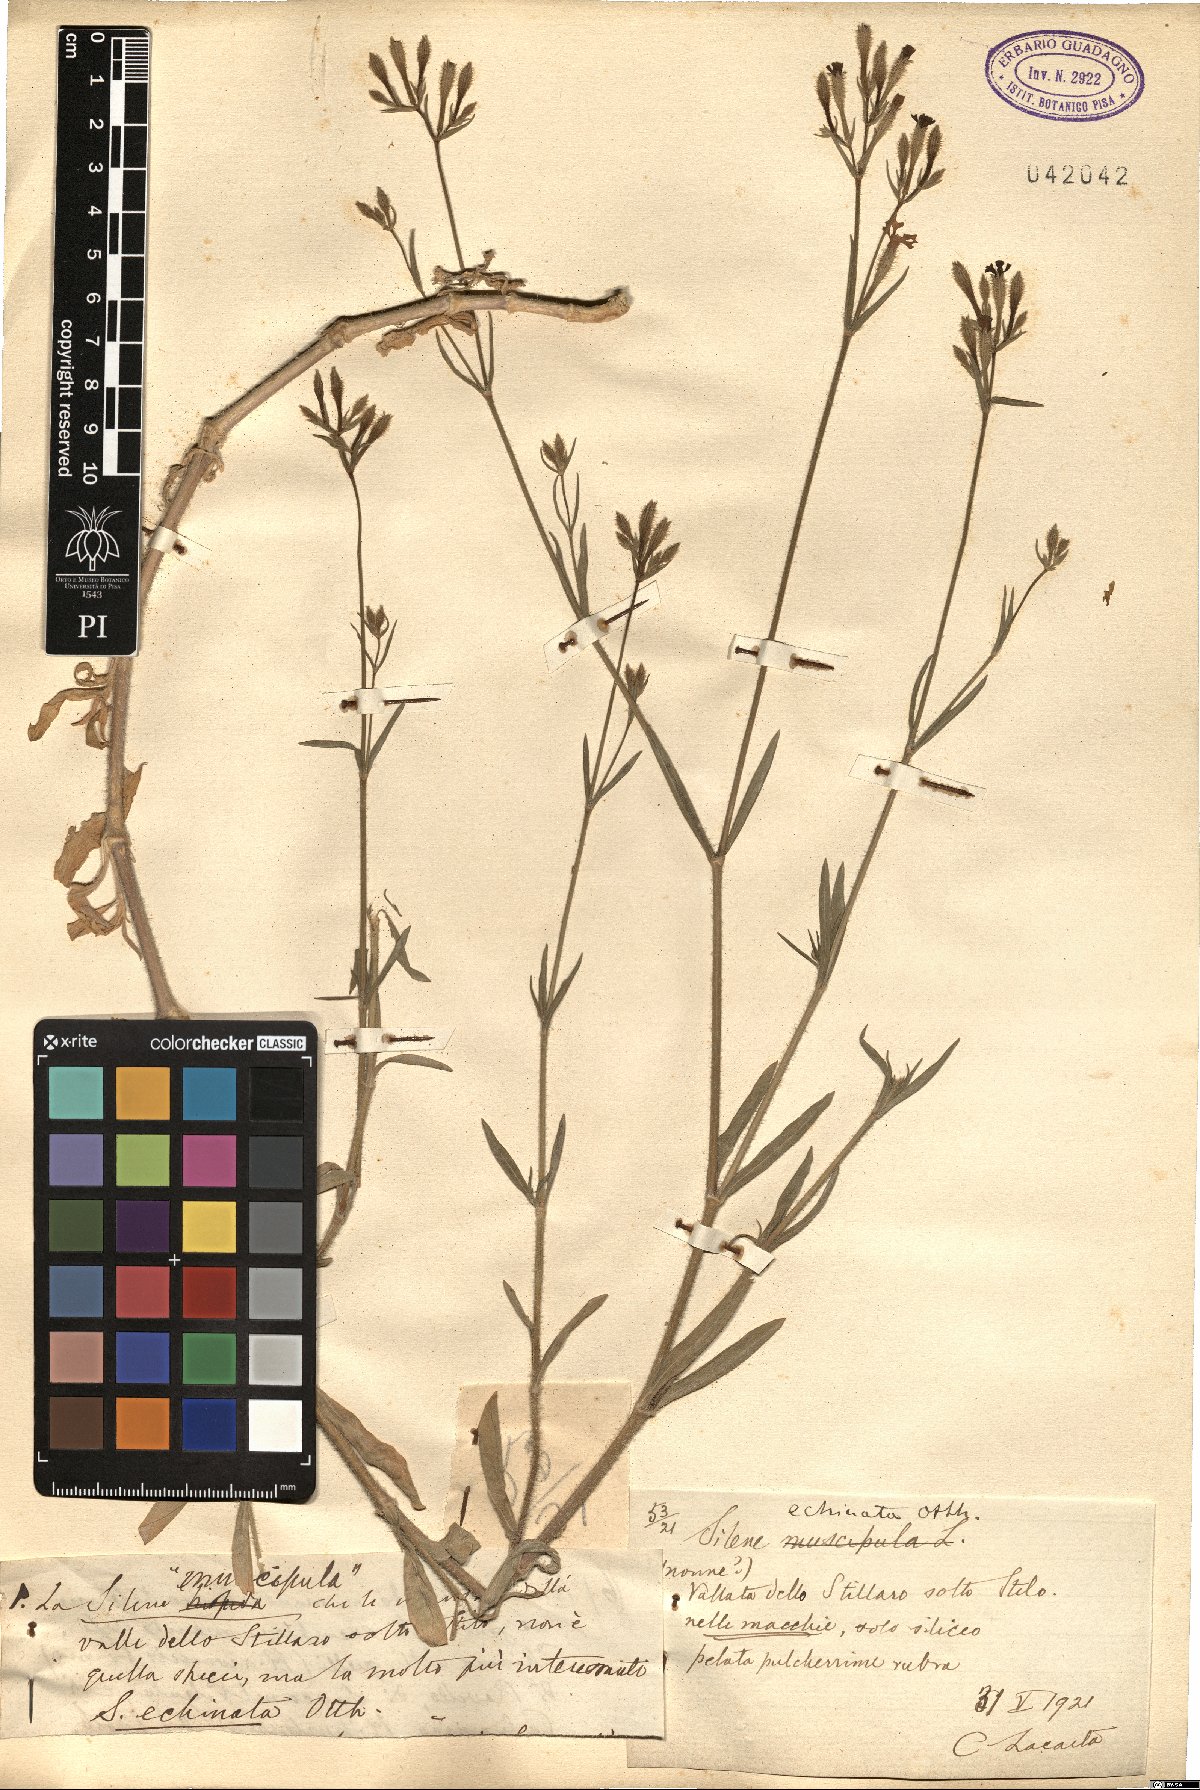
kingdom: Plantae
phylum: Tracheophyta
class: Magnoliopsida
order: Caryophyllales
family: Caryophyllaceae
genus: Silene
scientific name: Silene echinata
